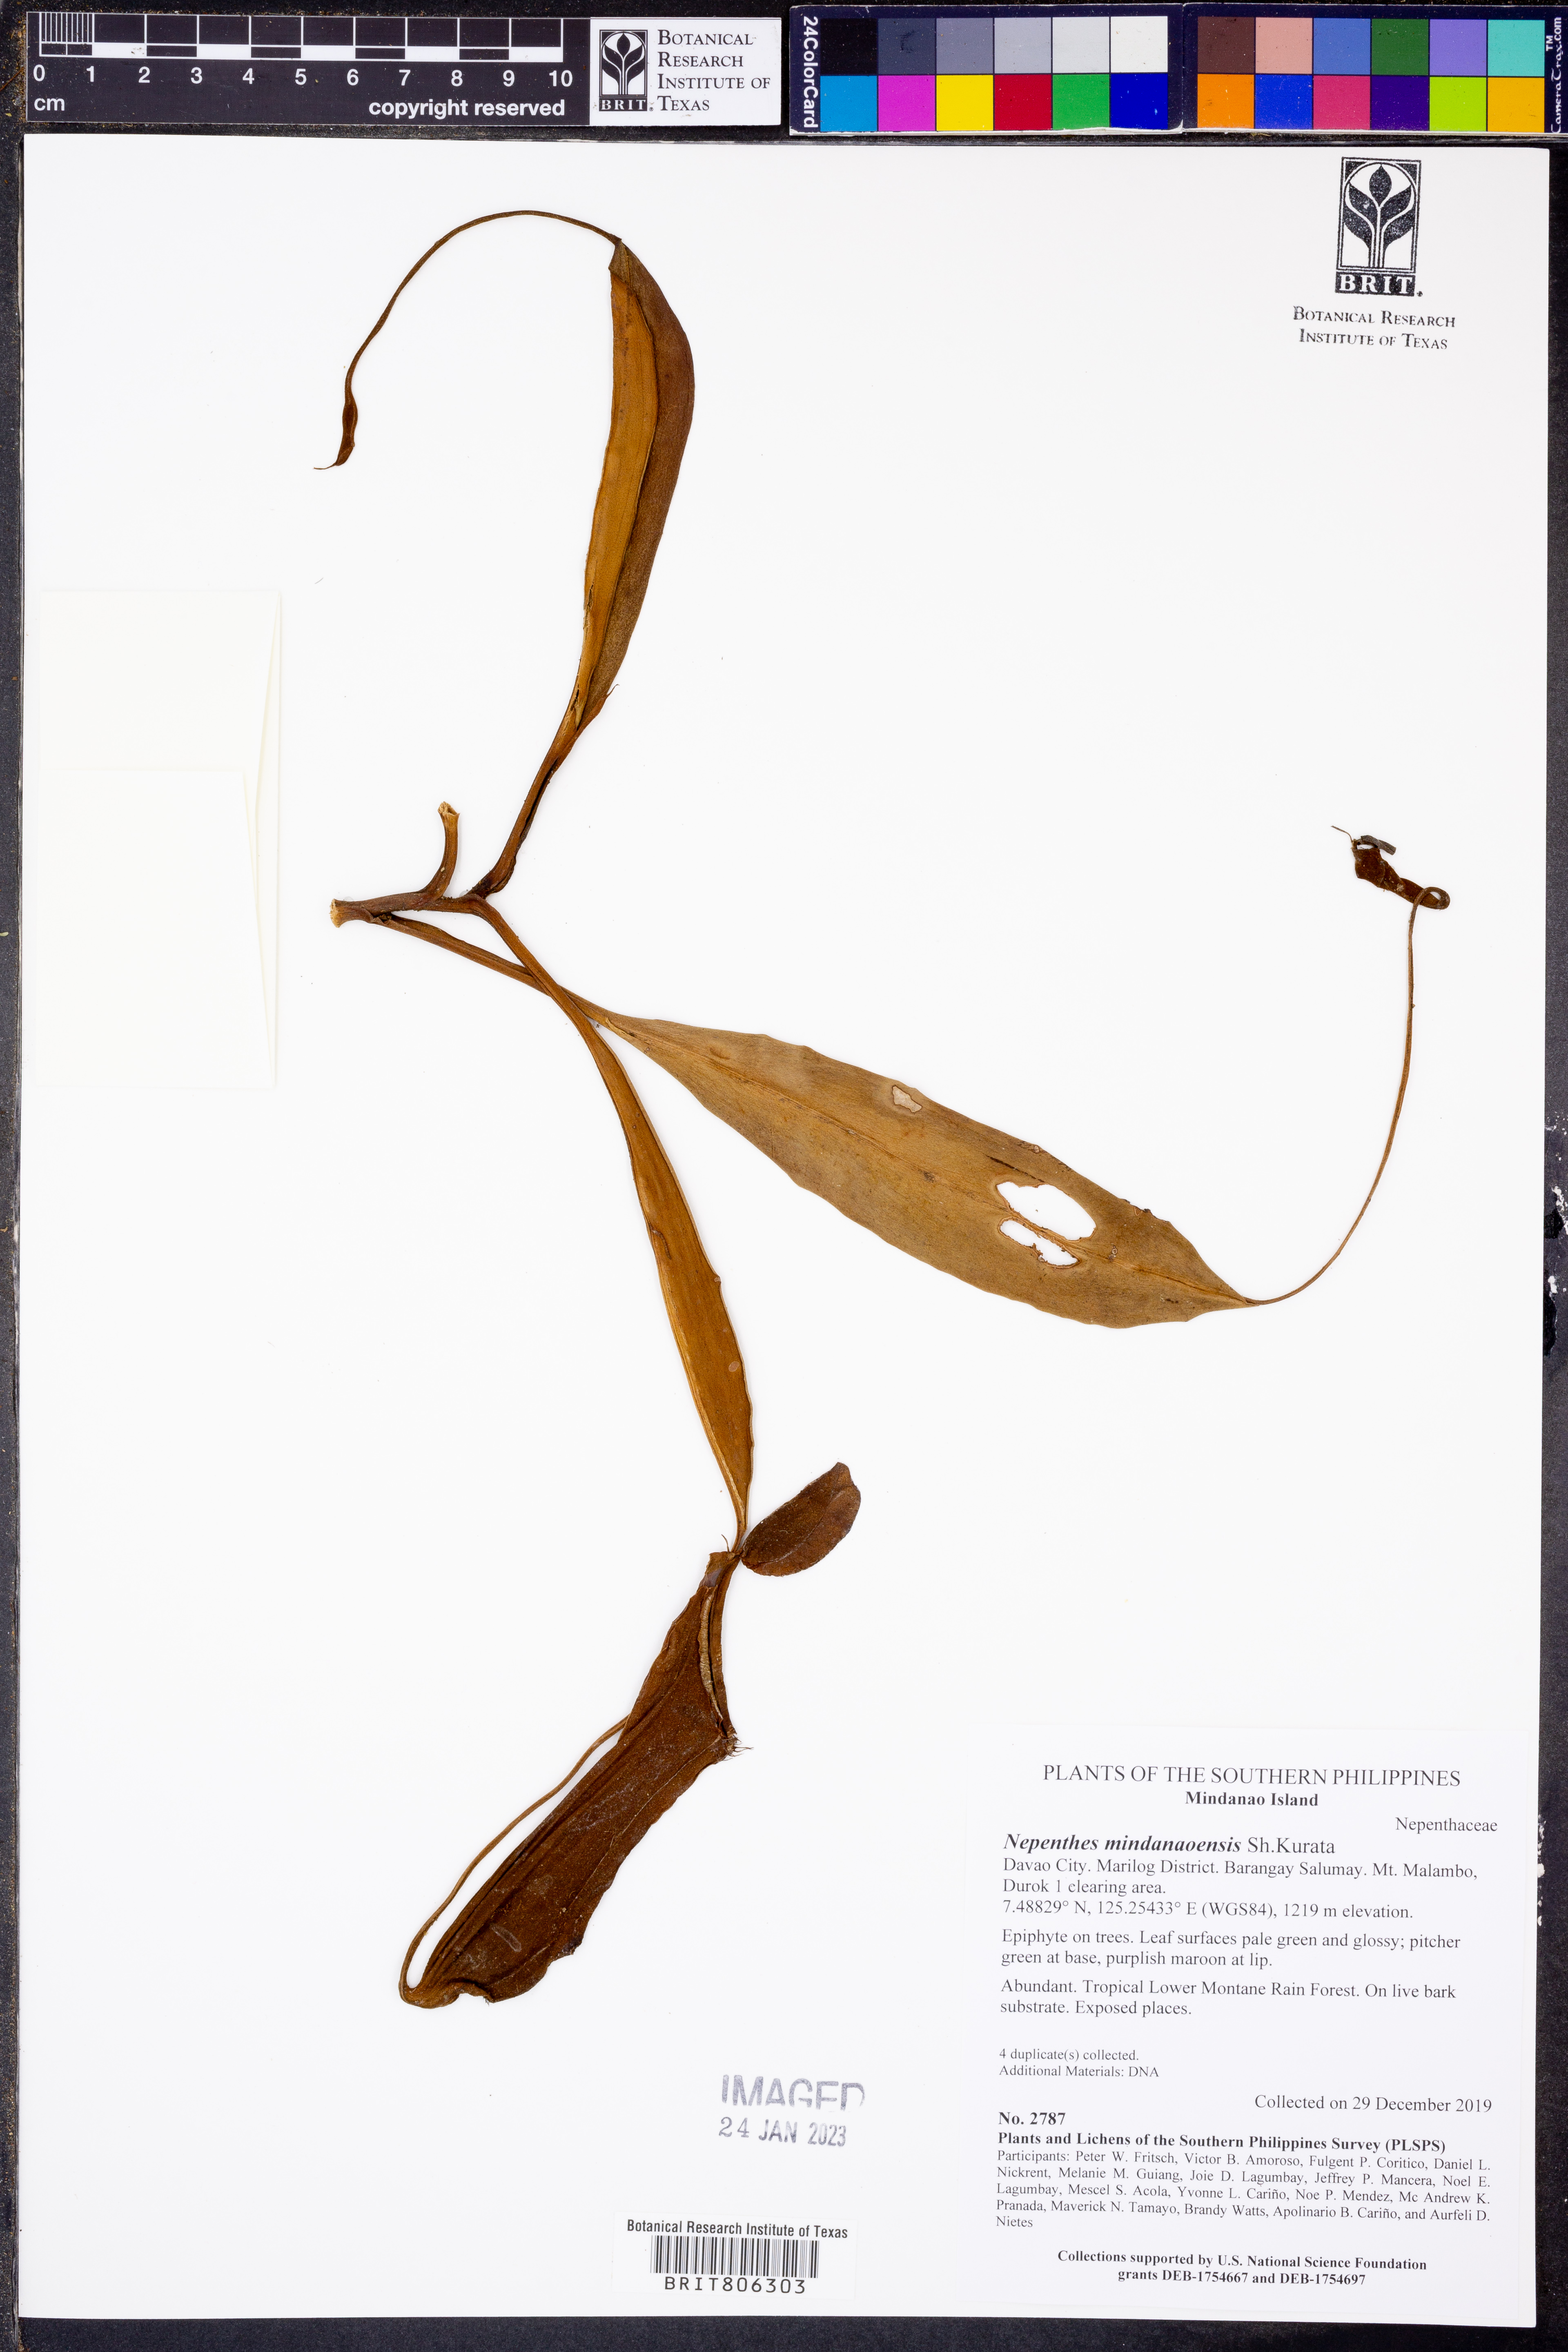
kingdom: Plantae
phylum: Tracheophyta
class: Magnoliopsida
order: Caryophyllales
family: Nepenthaceae
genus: Nepenthes
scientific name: Nepenthes mindanaoensis
